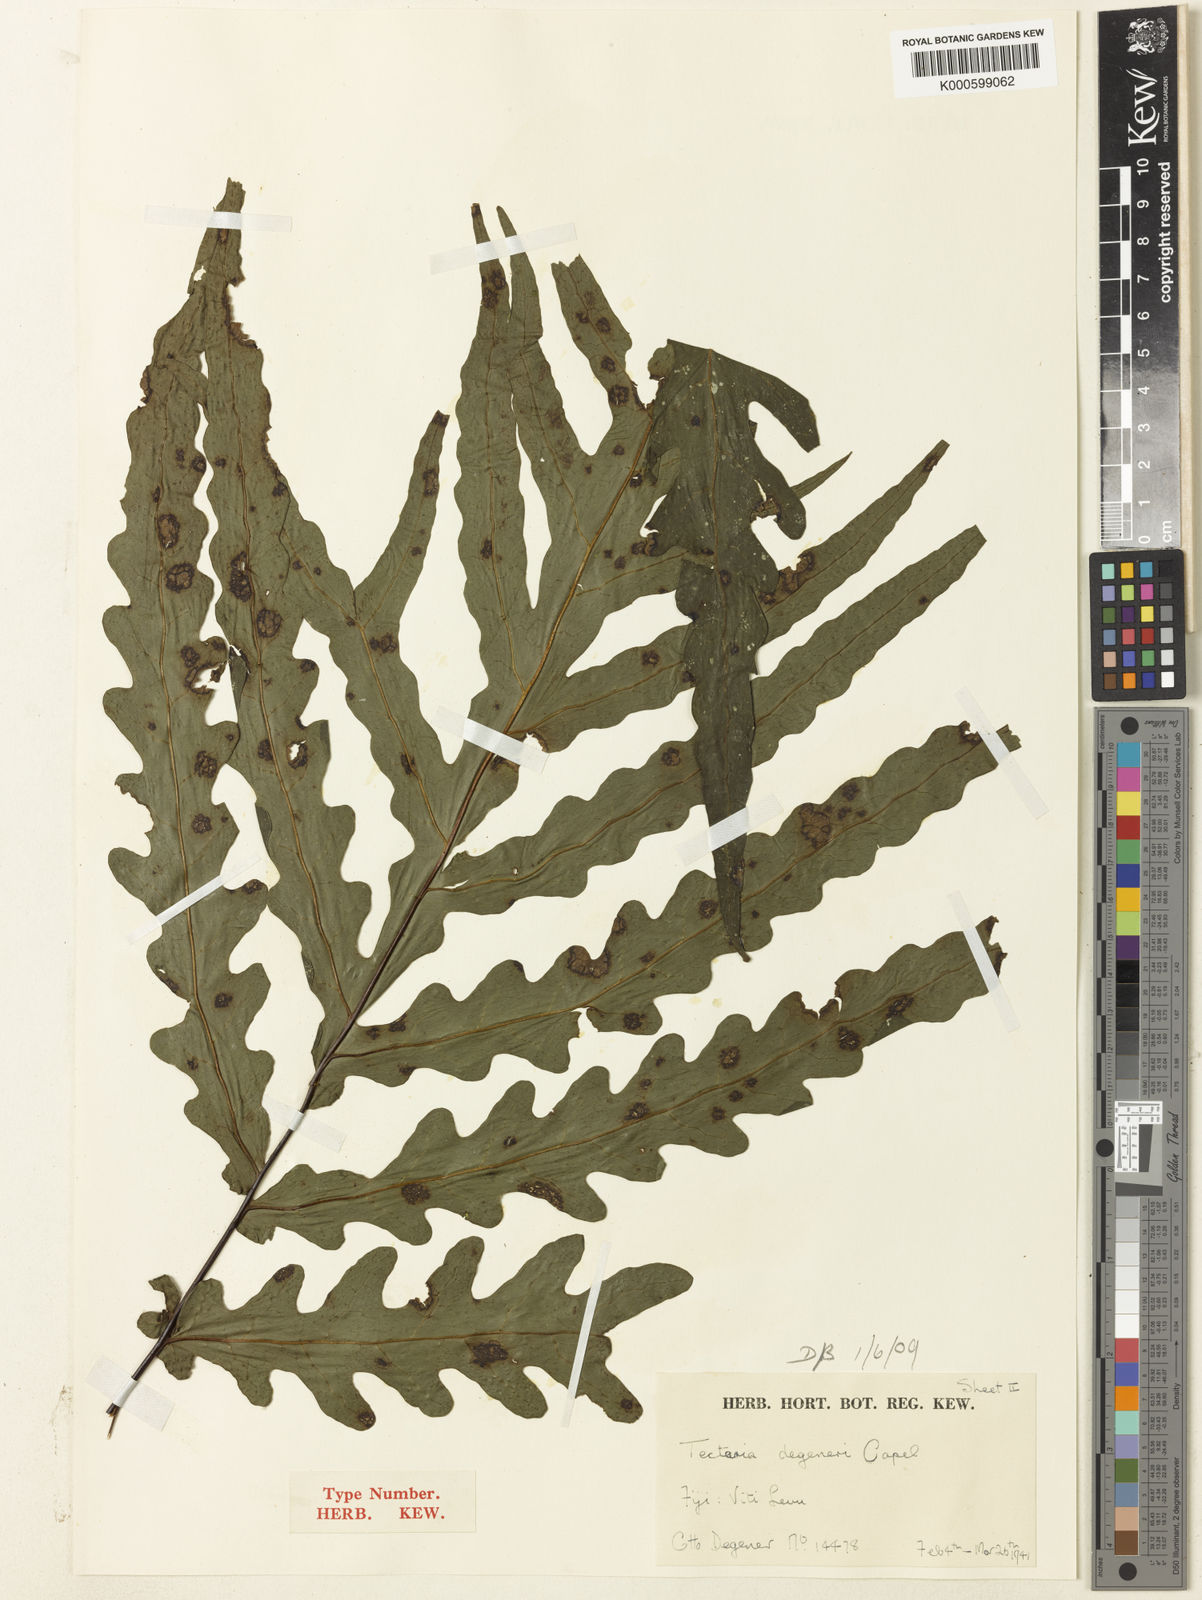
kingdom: Plantae
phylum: Tracheophyta
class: Polypodiopsida
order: Polypodiales
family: Tectariaceae
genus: Tectaria
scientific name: Tectaria degeneri
